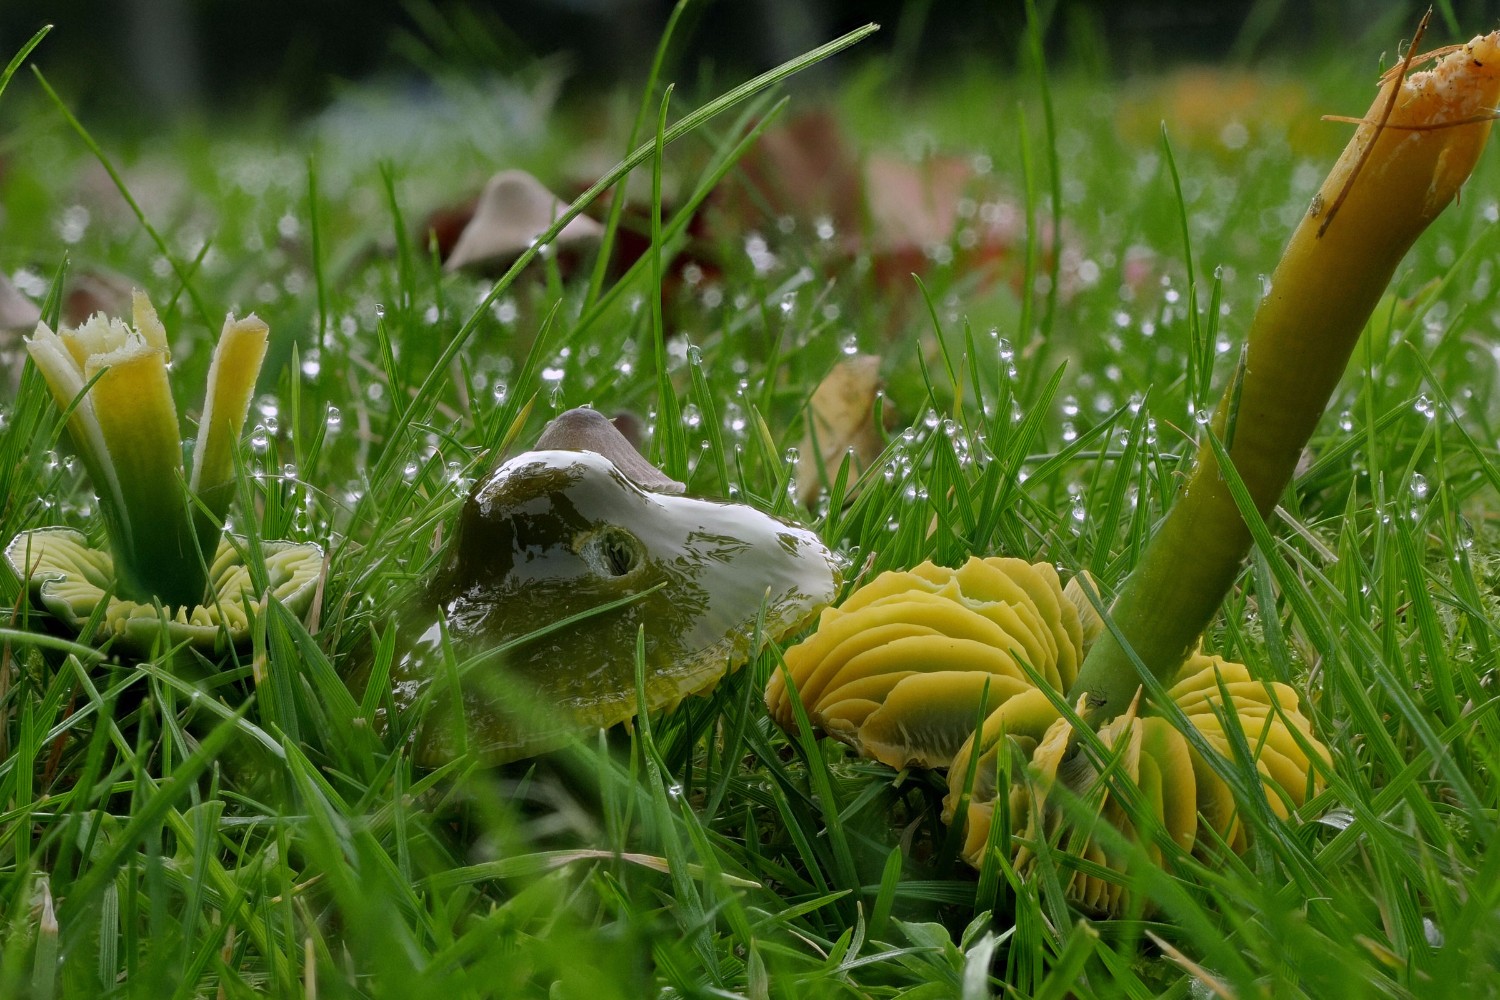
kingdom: Fungi
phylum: Basidiomycota
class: Agaricomycetes
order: Agaricales
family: Hygrophoraceae
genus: Gliophorus
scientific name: Gliophorus psittacinus
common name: papegøje-vokshat
